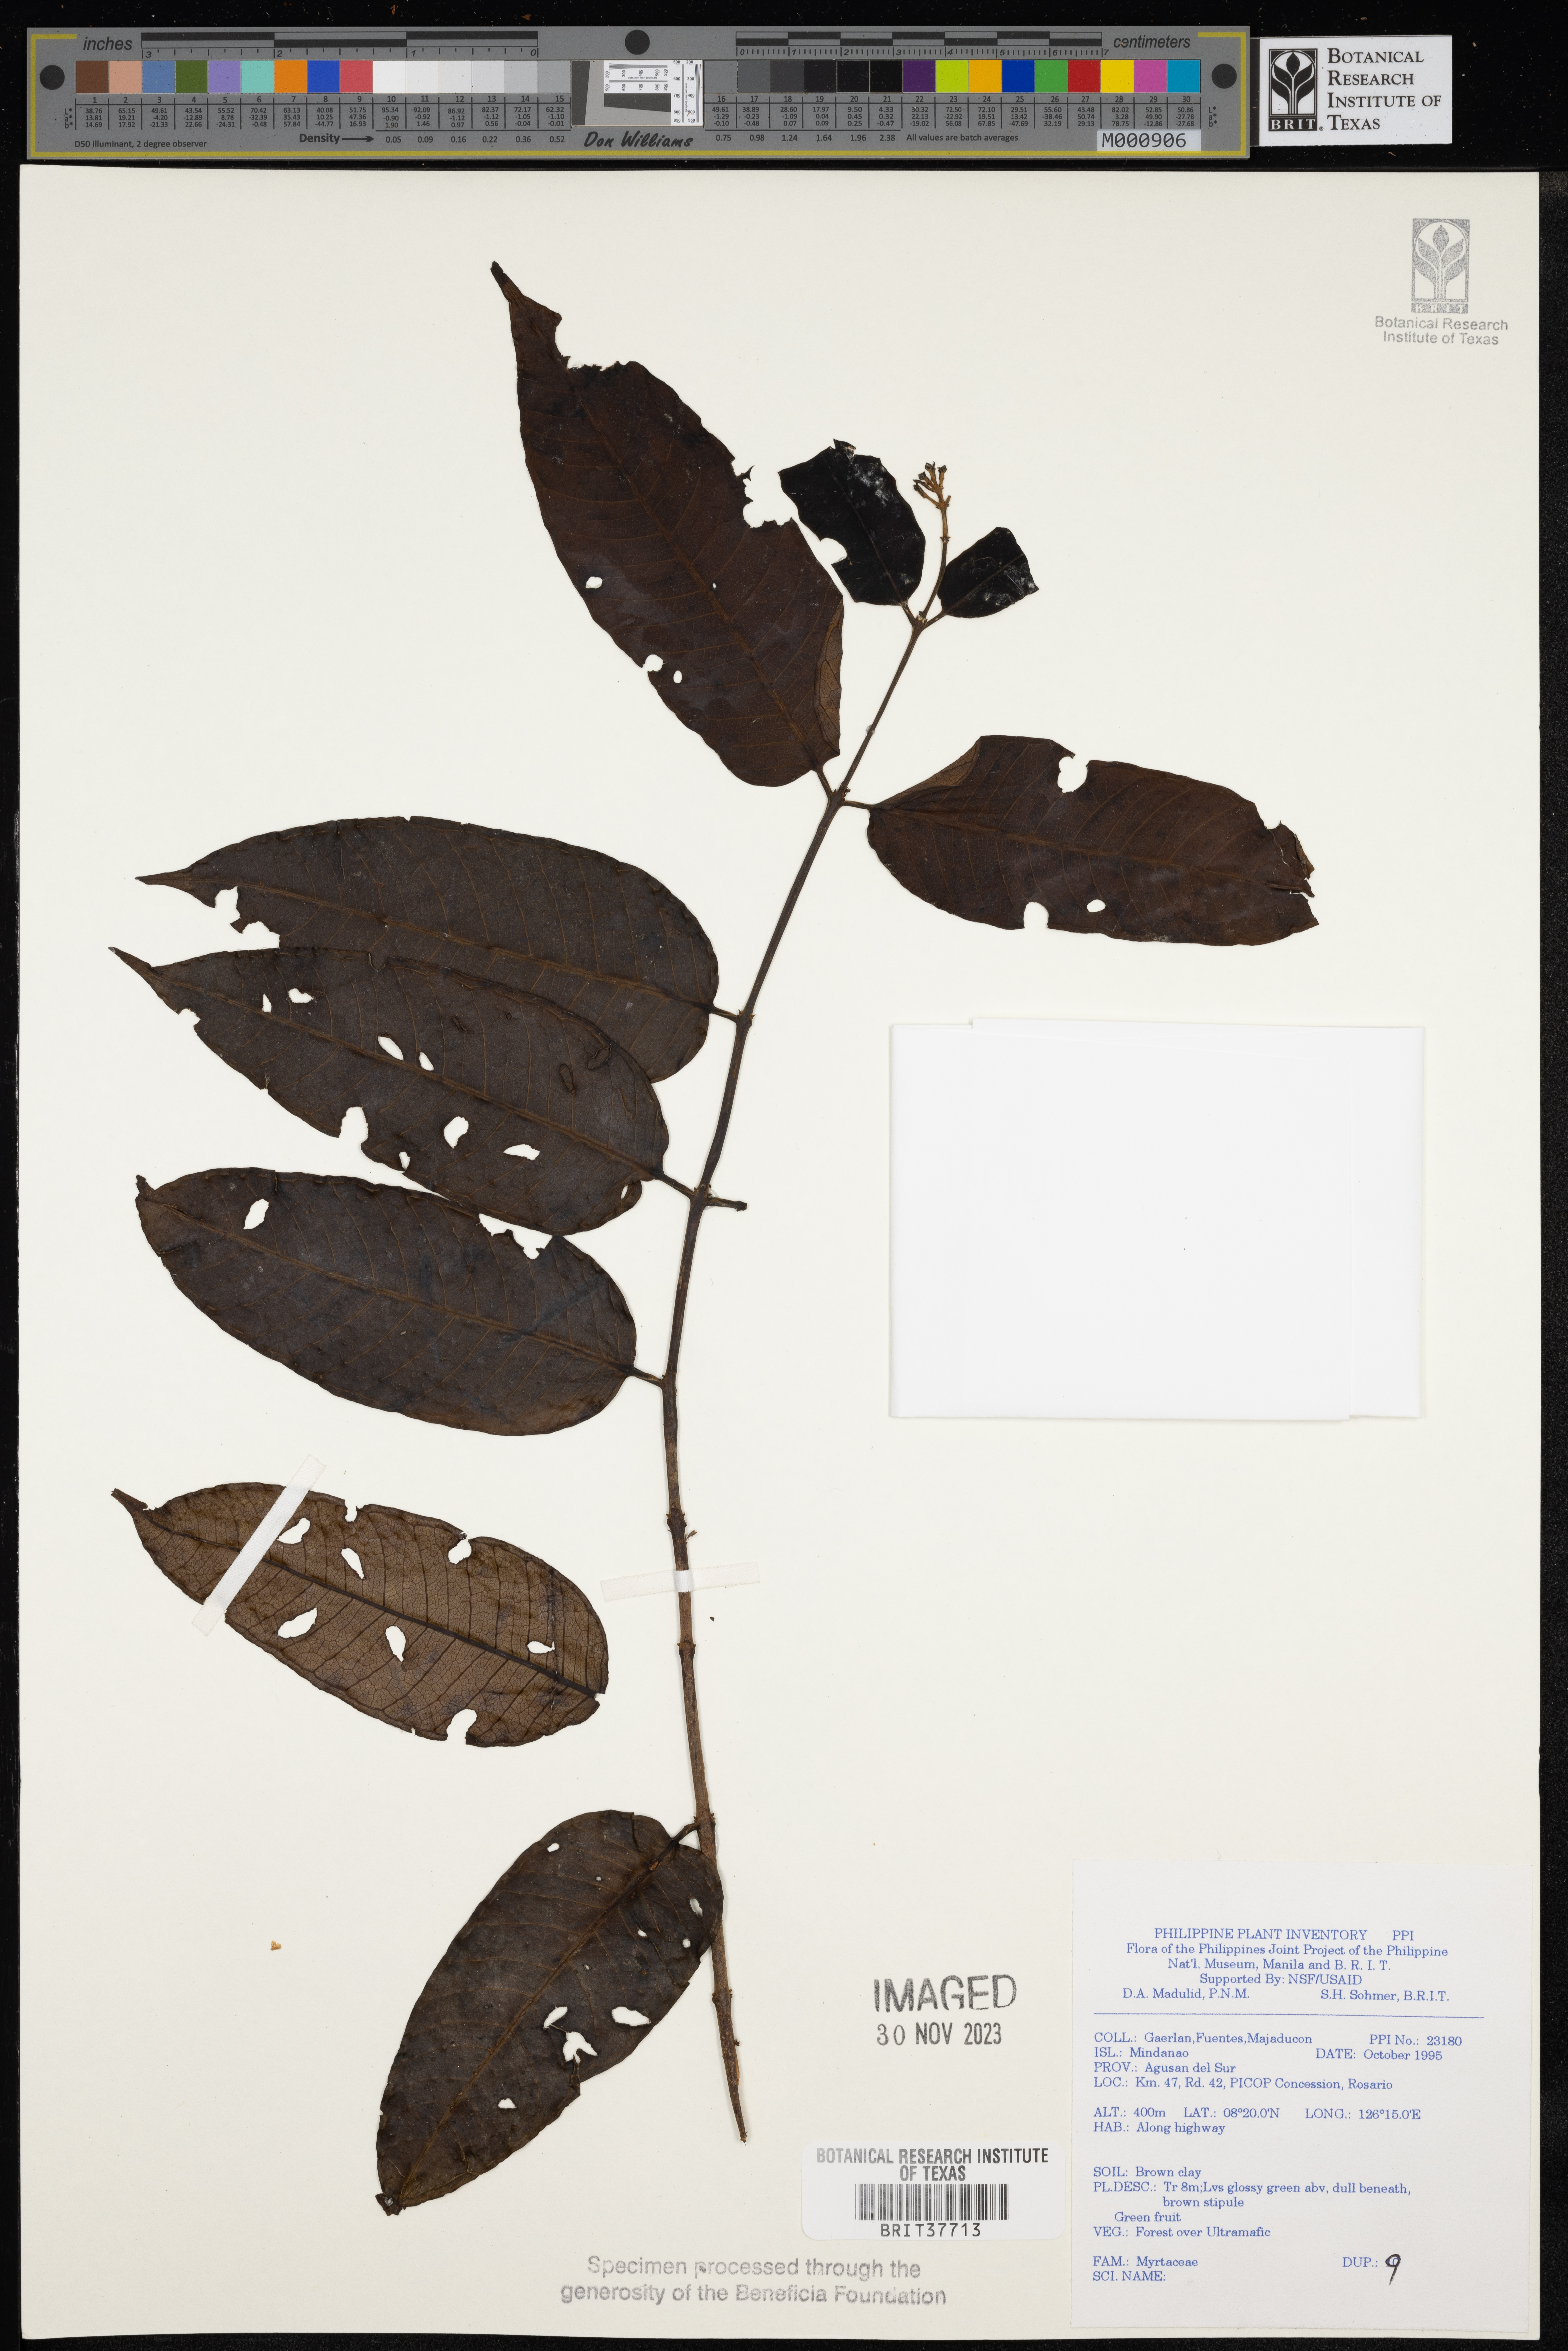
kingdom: Plantae
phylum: Tracheophyta
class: Magnoliopsida
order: Myrtales
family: Myrtaceae
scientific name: Myrtaceae
